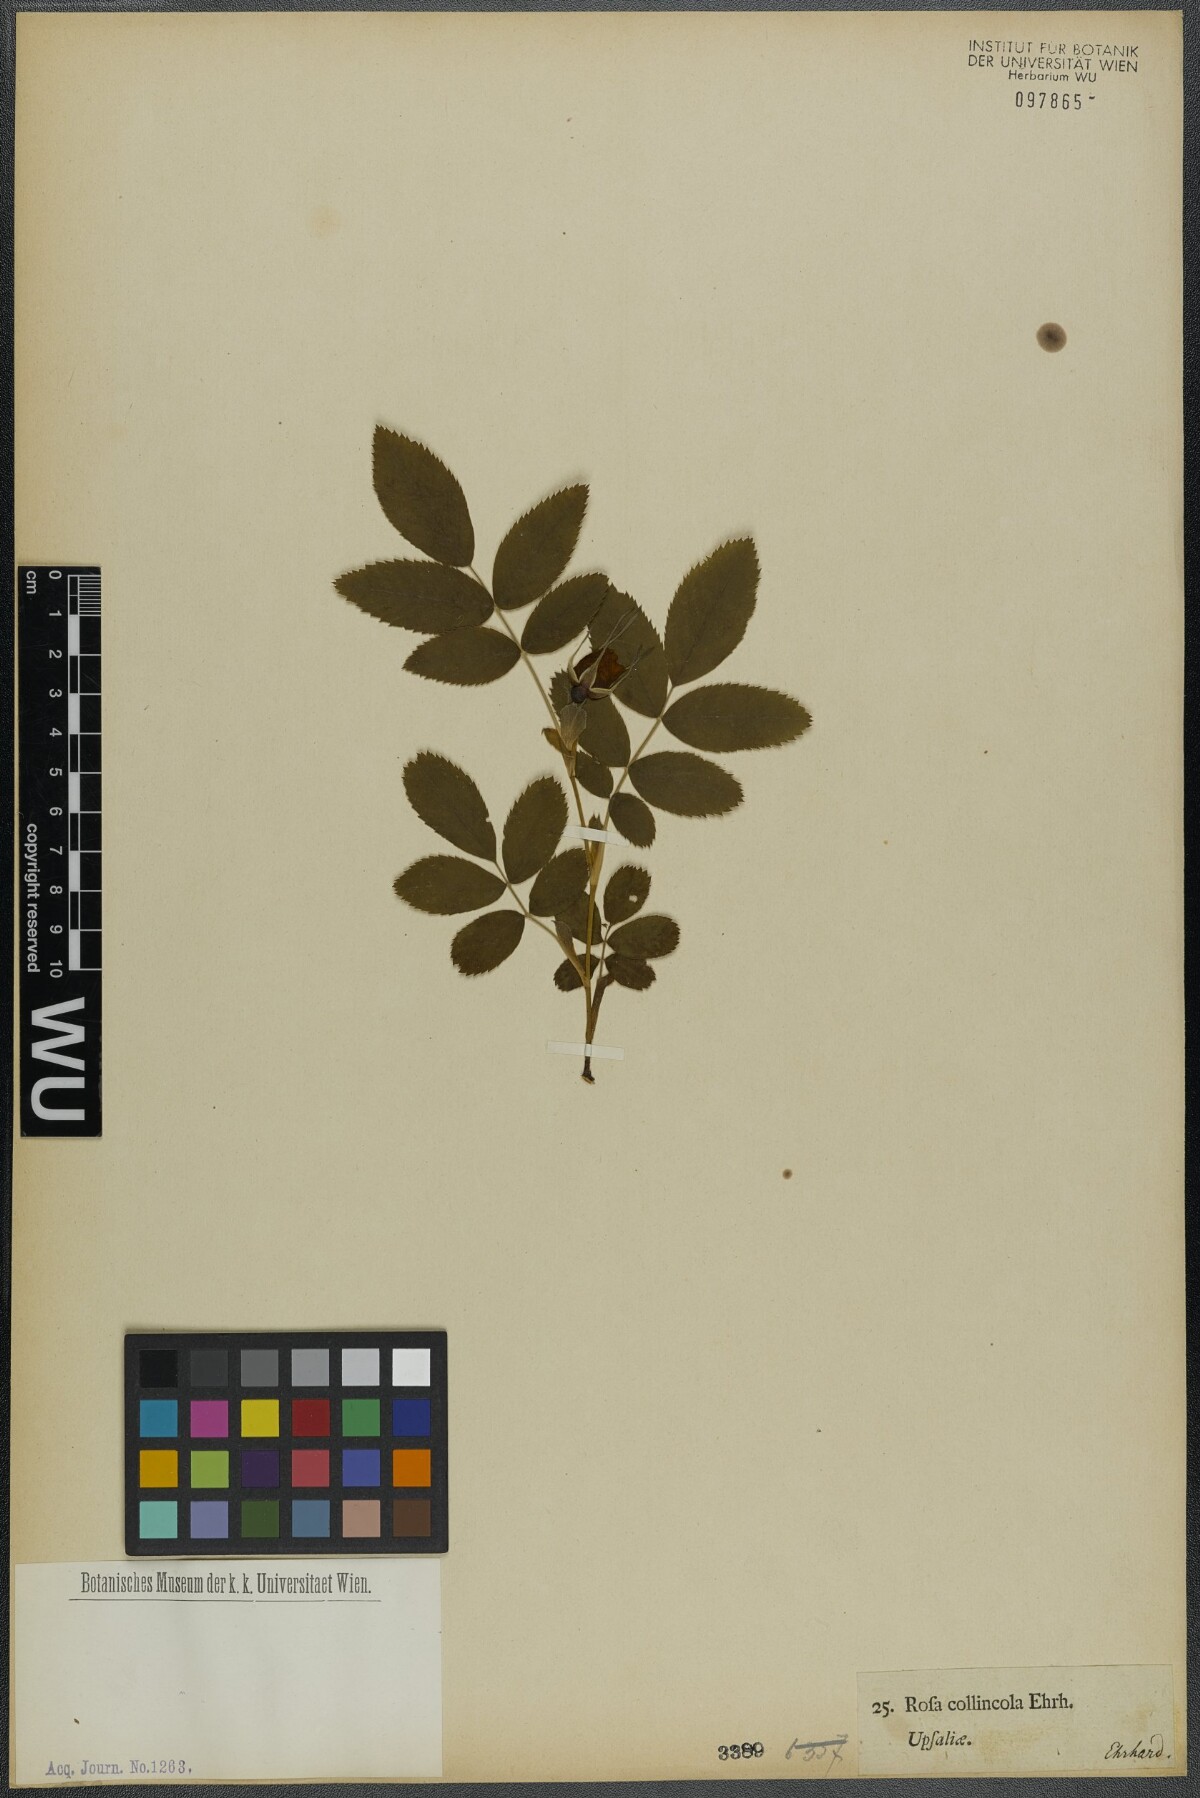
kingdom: Plantae
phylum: Tracheophyta
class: Magnoliopsida
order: Rosales
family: Rosaceae
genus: Rosa
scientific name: Rosa majalis
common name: Cinnamon rose
